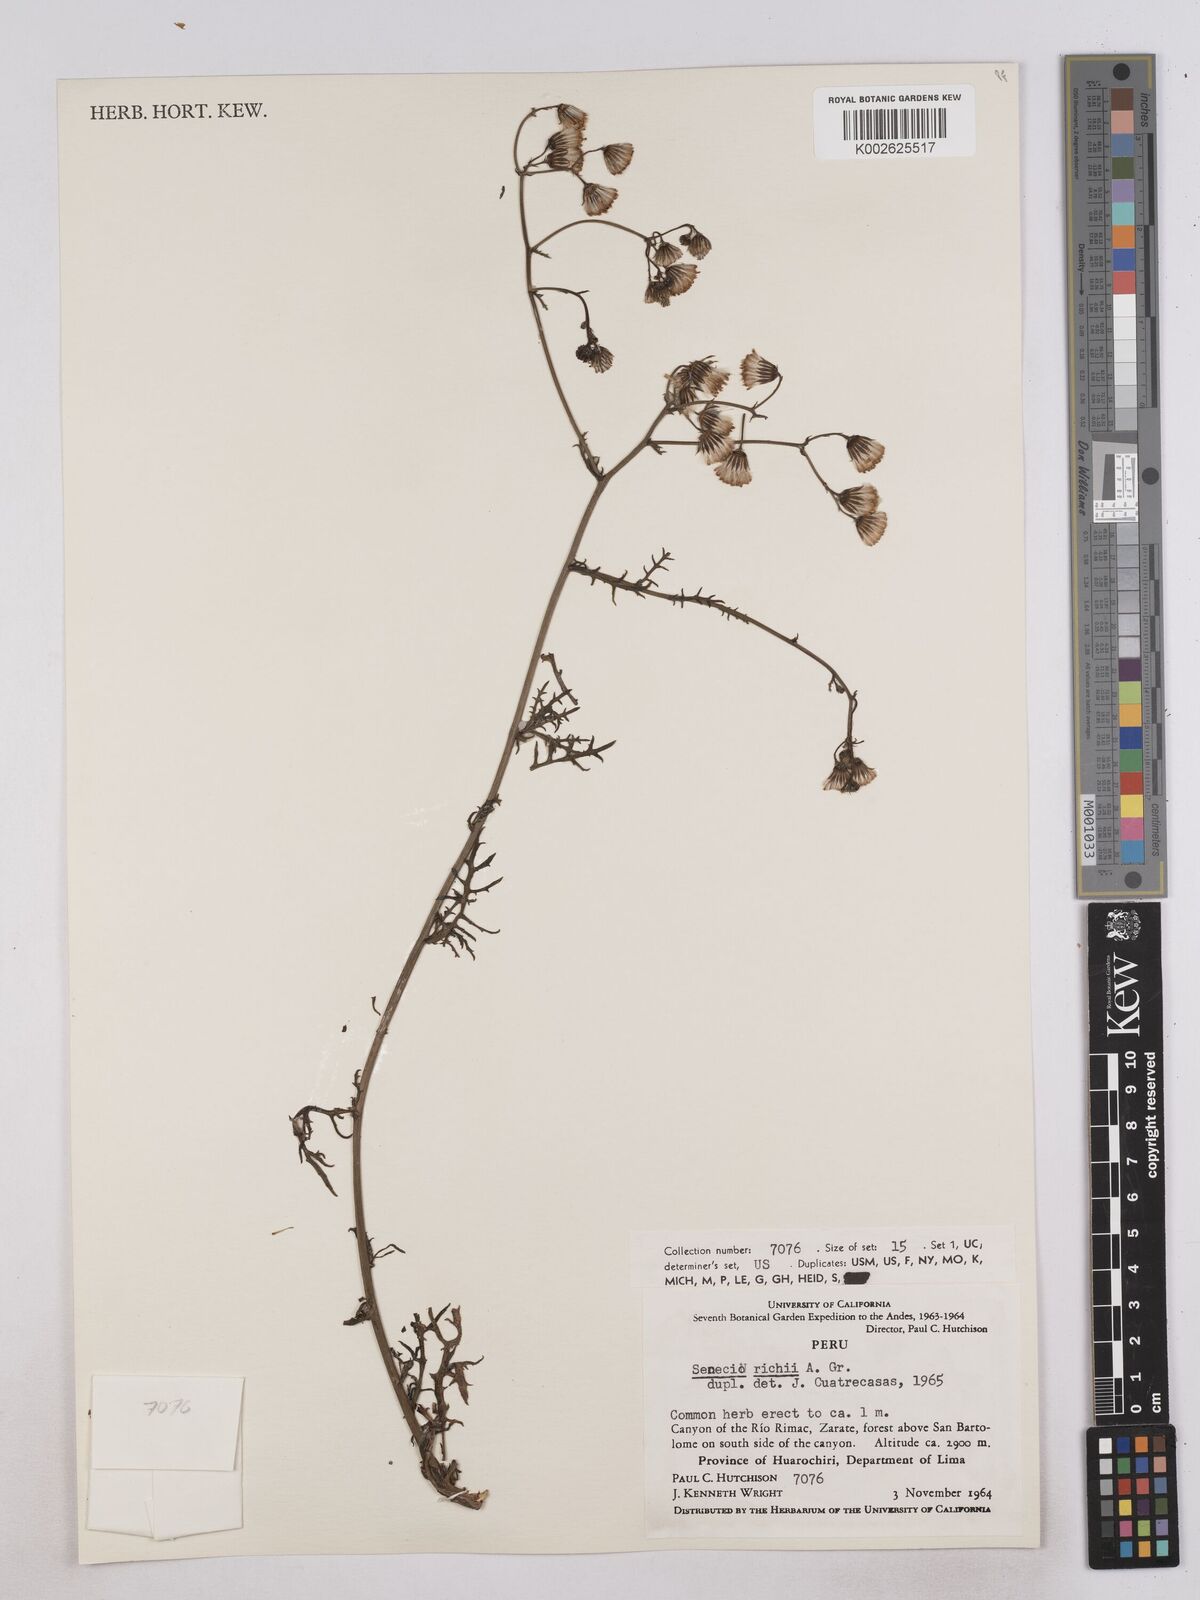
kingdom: Plantae
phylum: Tracheophyta
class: Magnoliopsida
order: Asterales
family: Asteraceae
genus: Senecio
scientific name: Senecio richii
